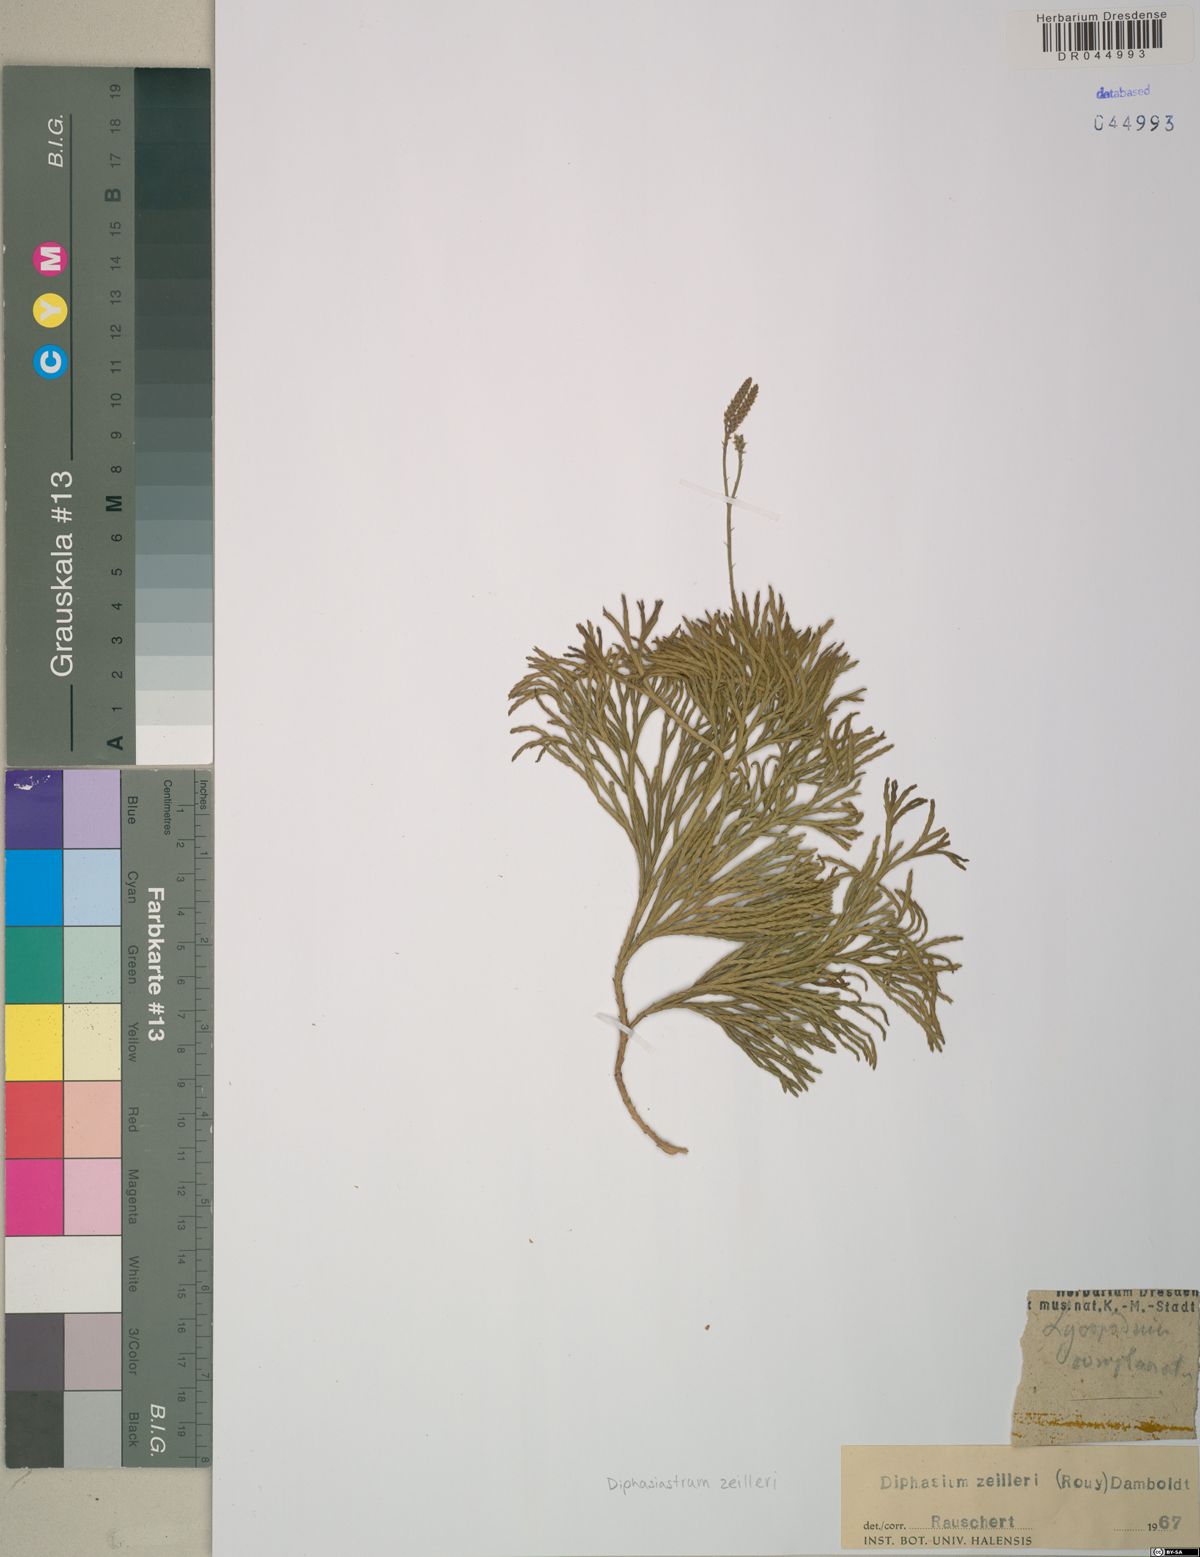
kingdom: Plantae
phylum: Tracheophyta
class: Lycopodiopsida
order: Lycopodiales
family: Lycopodiaceae
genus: Diphasiastrum
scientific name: Diphasiastrum zeilleri
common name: Zeiller's clubmoss
